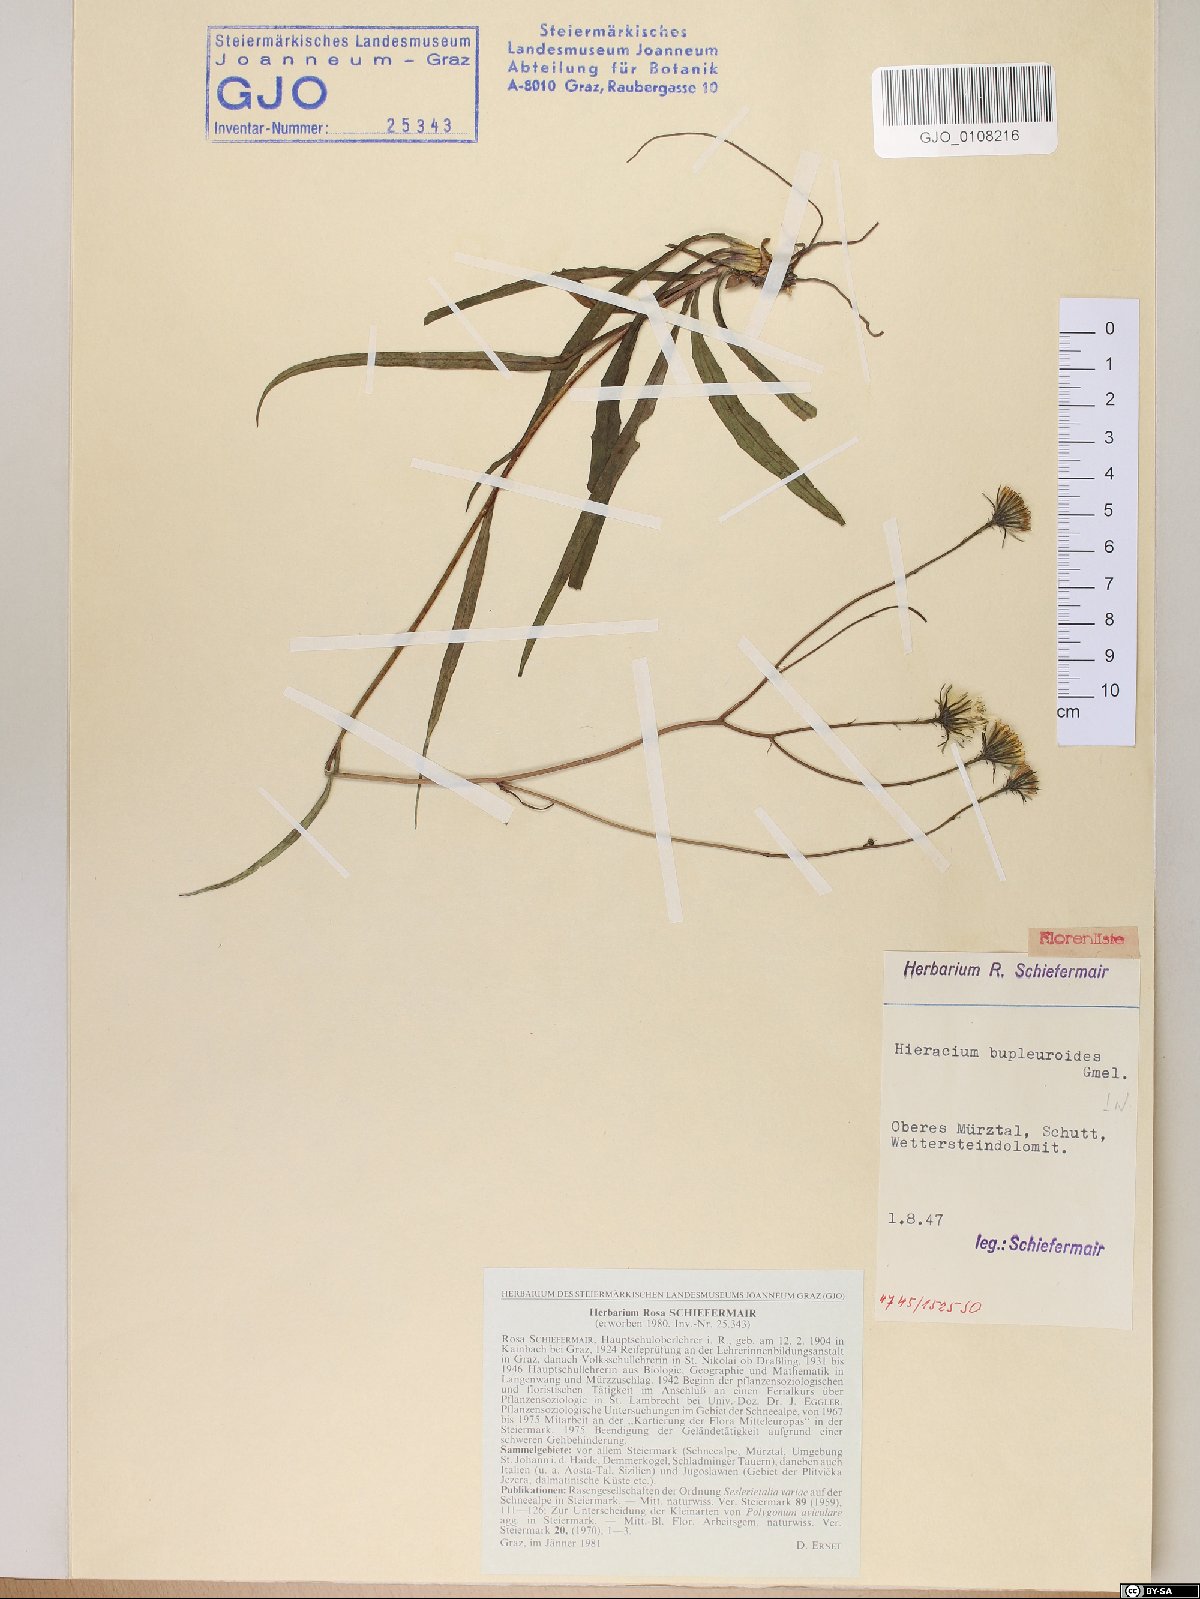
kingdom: Plantae
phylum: Tracheophyta
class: Magnoliopsida
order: Asterales
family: Asteraceae
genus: Hieracium
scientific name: Hieracium bupleuroides
